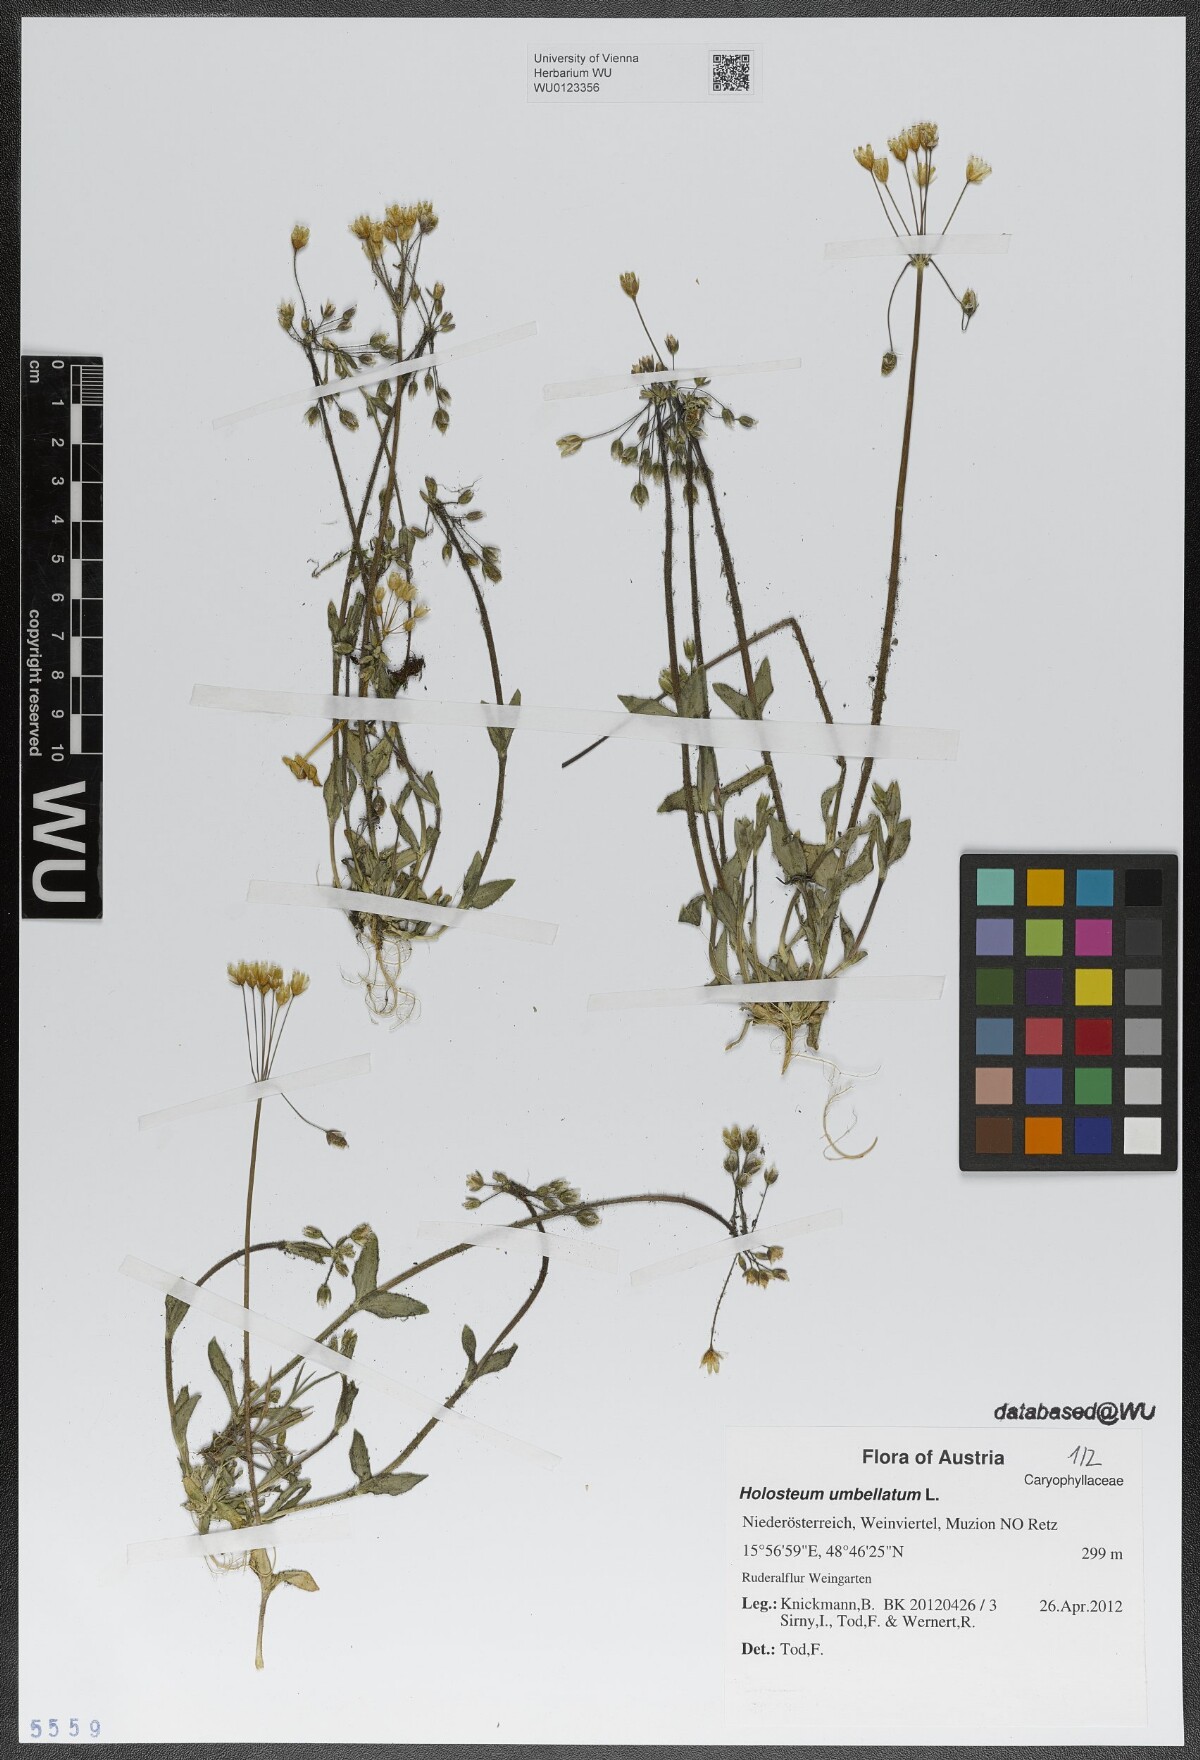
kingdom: Plantae
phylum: Tracheophyta
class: Magnoliopsida
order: Caryophyllales
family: Caryophyllaceae
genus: Holosteum
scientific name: Holosteum umbellatum
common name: Jagged chickweed
